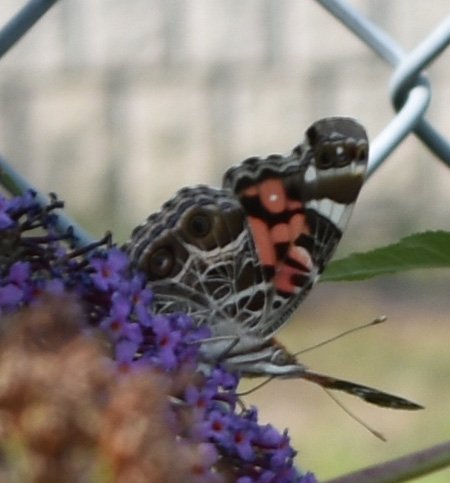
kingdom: Animalia
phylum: Arthropoda
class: Insecta
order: Lepidoptera
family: Nymphalidae
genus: Vanessa
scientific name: Vanessa virginiensis
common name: American Lady
